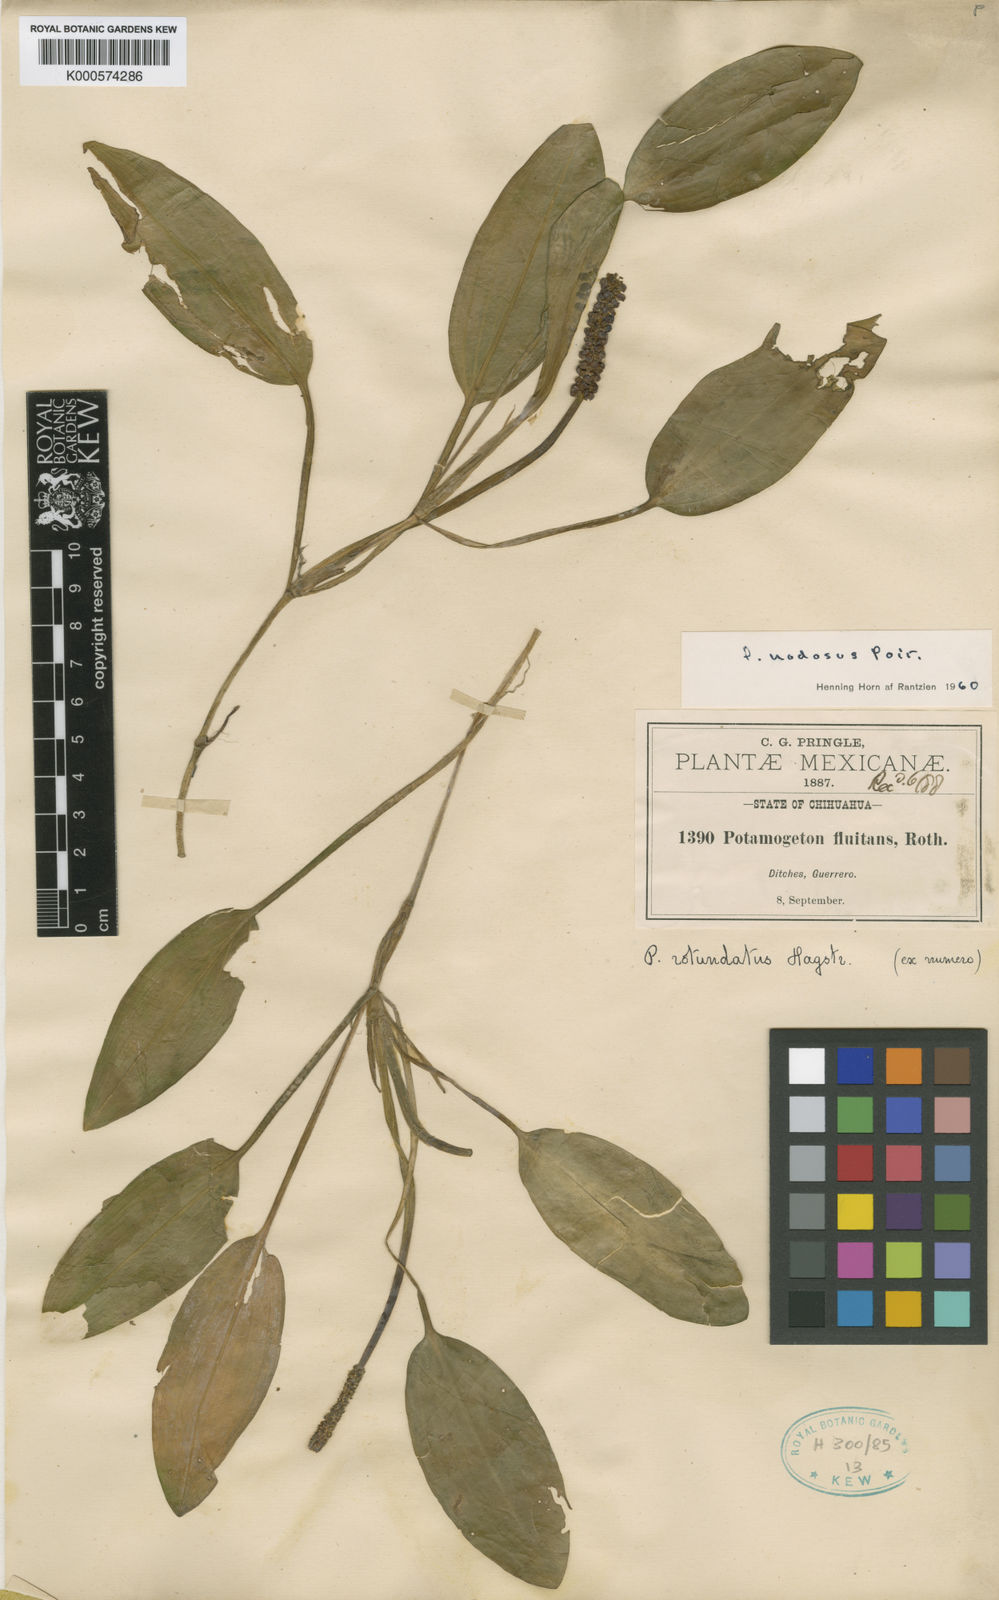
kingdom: Plantae
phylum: Tracheophyta
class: Liliopsida
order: Alismatales
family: Potamogetonaceae
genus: Potamogeton
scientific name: Potamogeton nodosus
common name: Loddon pondweed
